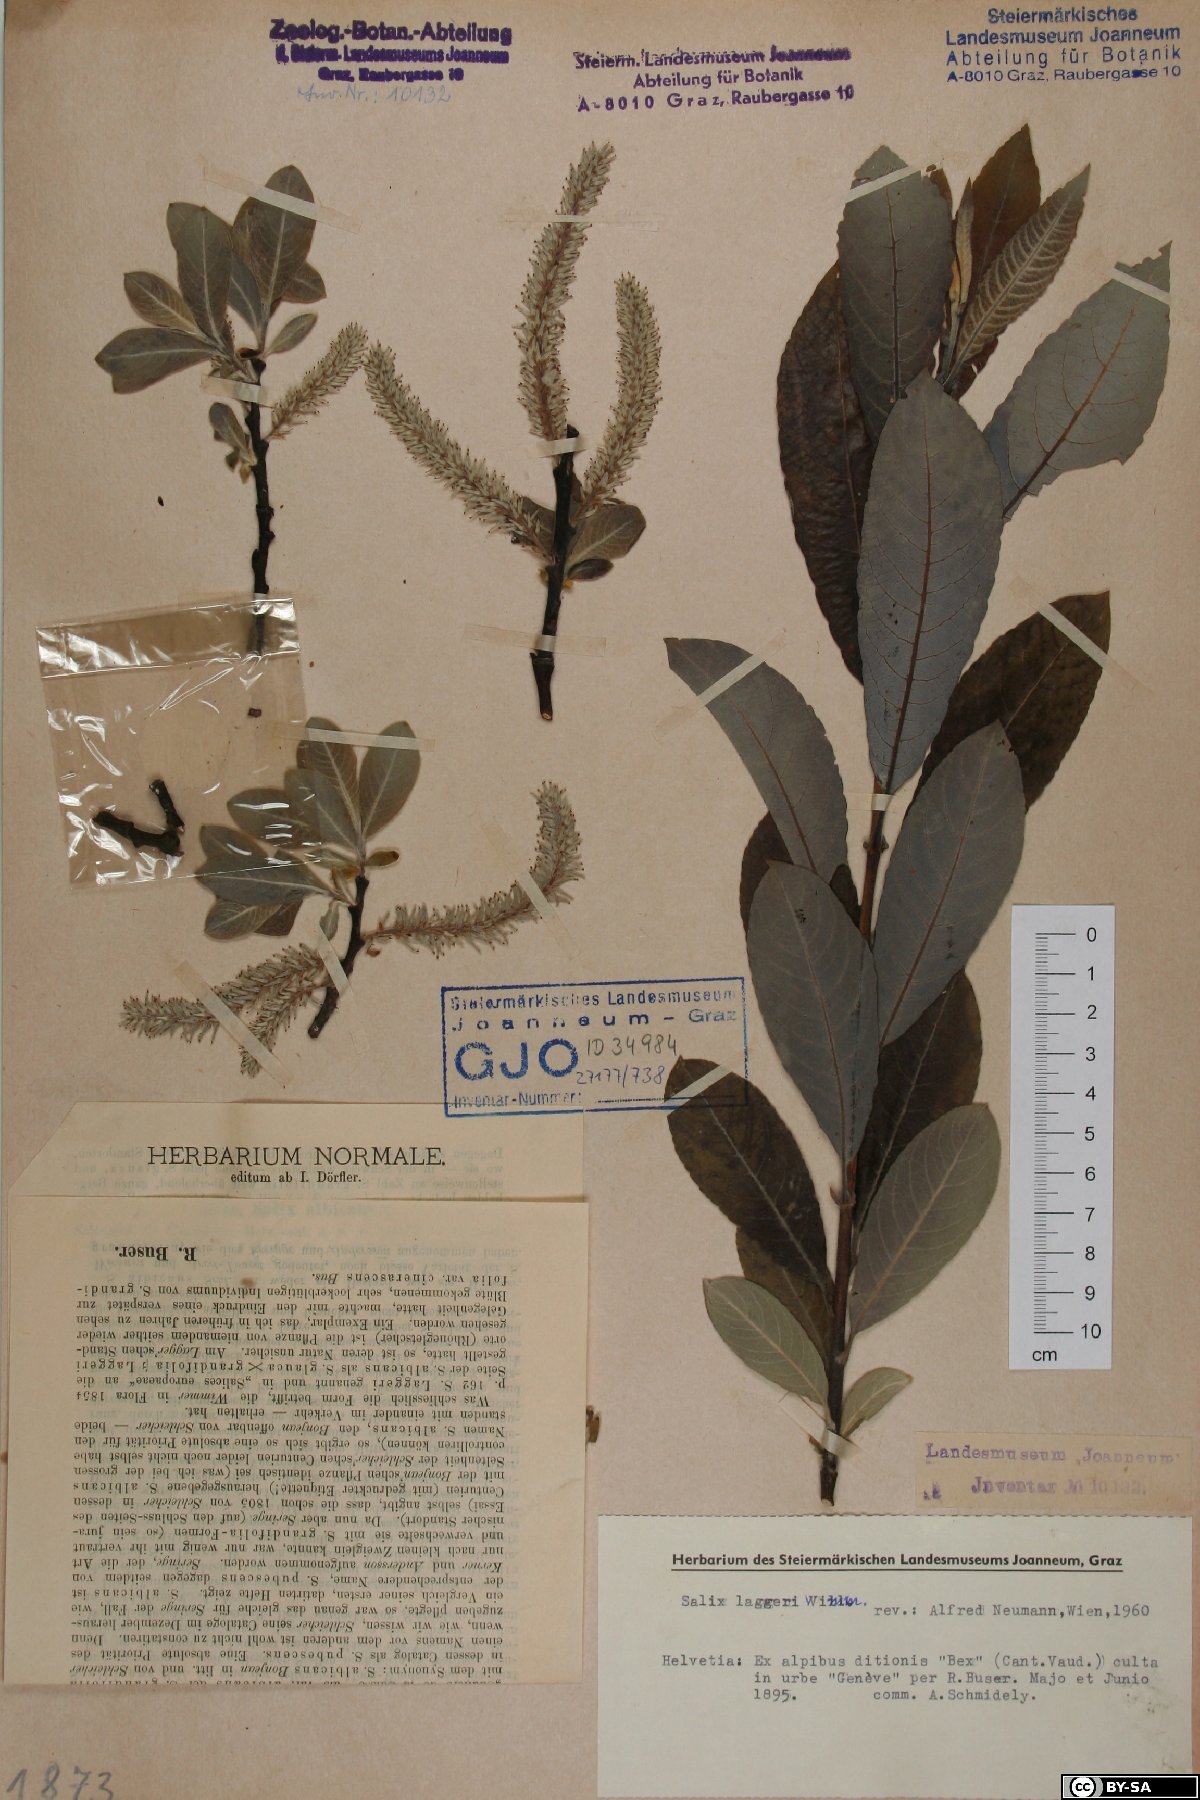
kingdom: Plantae
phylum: Tracheophyta
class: Magnoliopsida
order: Malpighiales
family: Salicaceae
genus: Salix
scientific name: Salix laggeri
